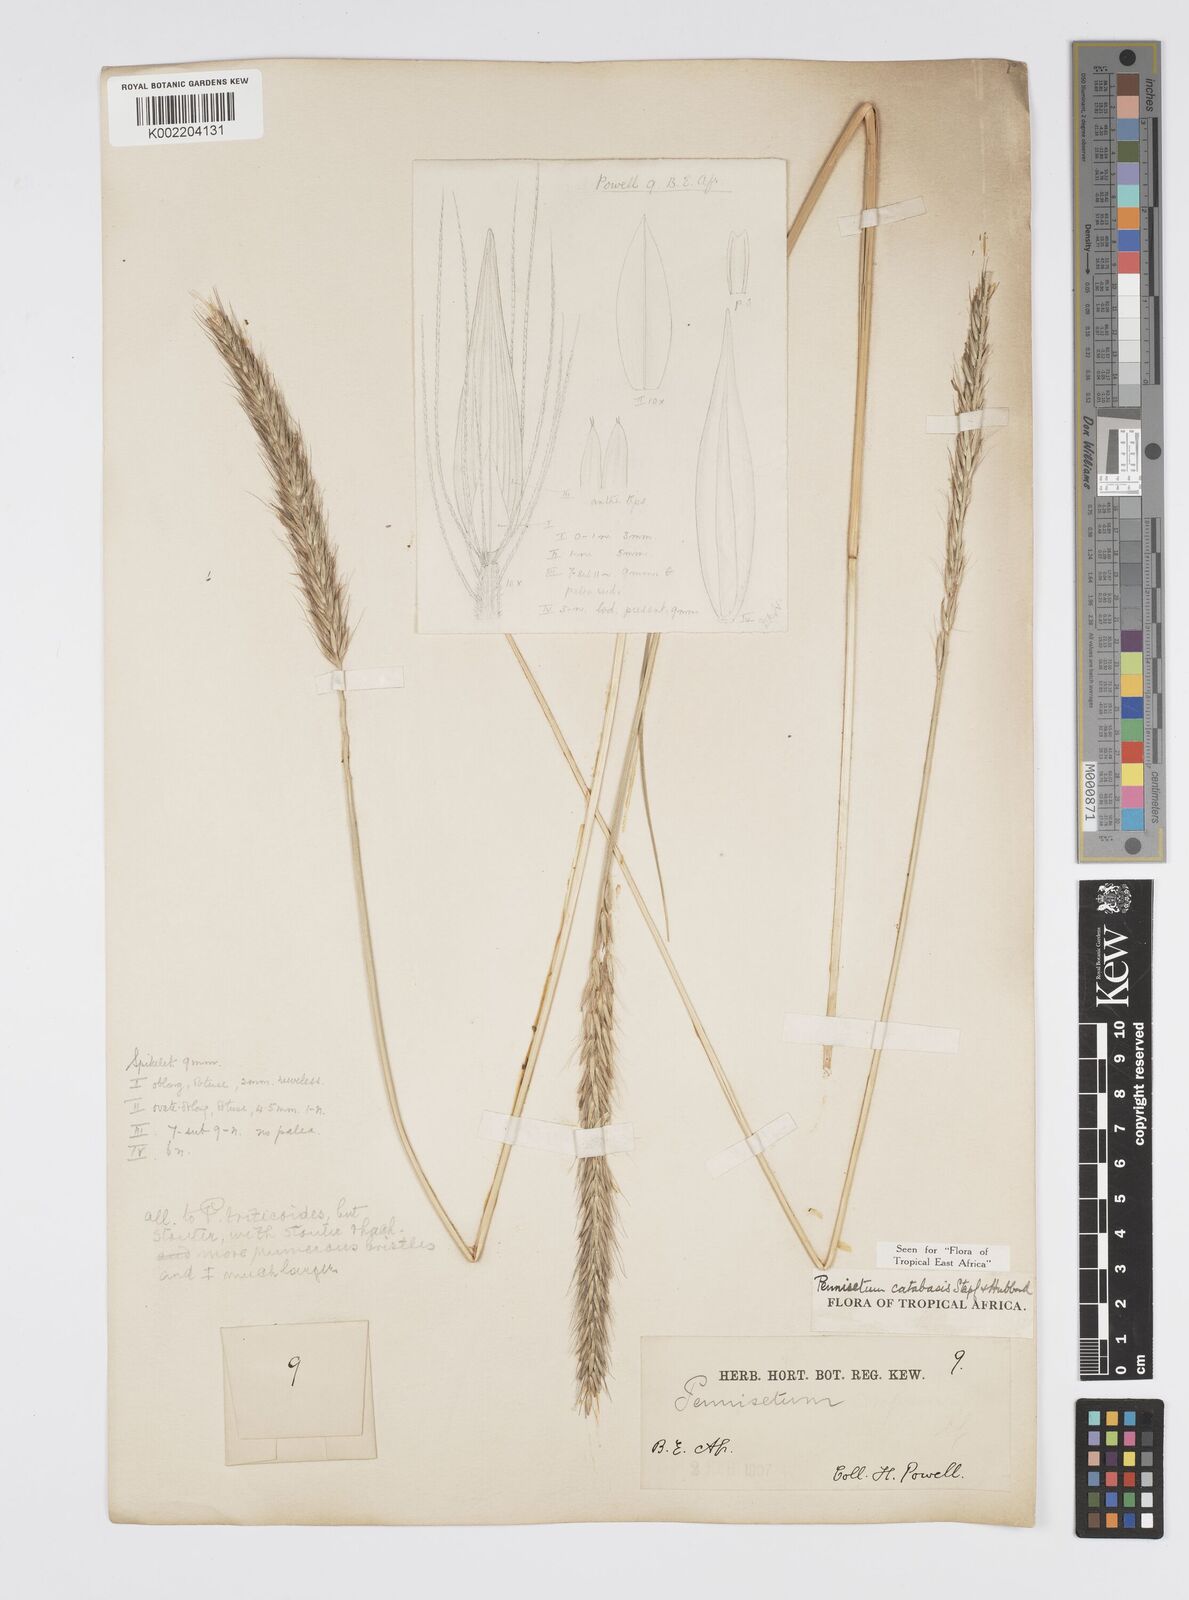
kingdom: Plantae
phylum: Tracheophyta
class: Liliopsida
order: Poales
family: Poaceae
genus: Cenchrus
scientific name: Cenchrus Pennisetum spec
